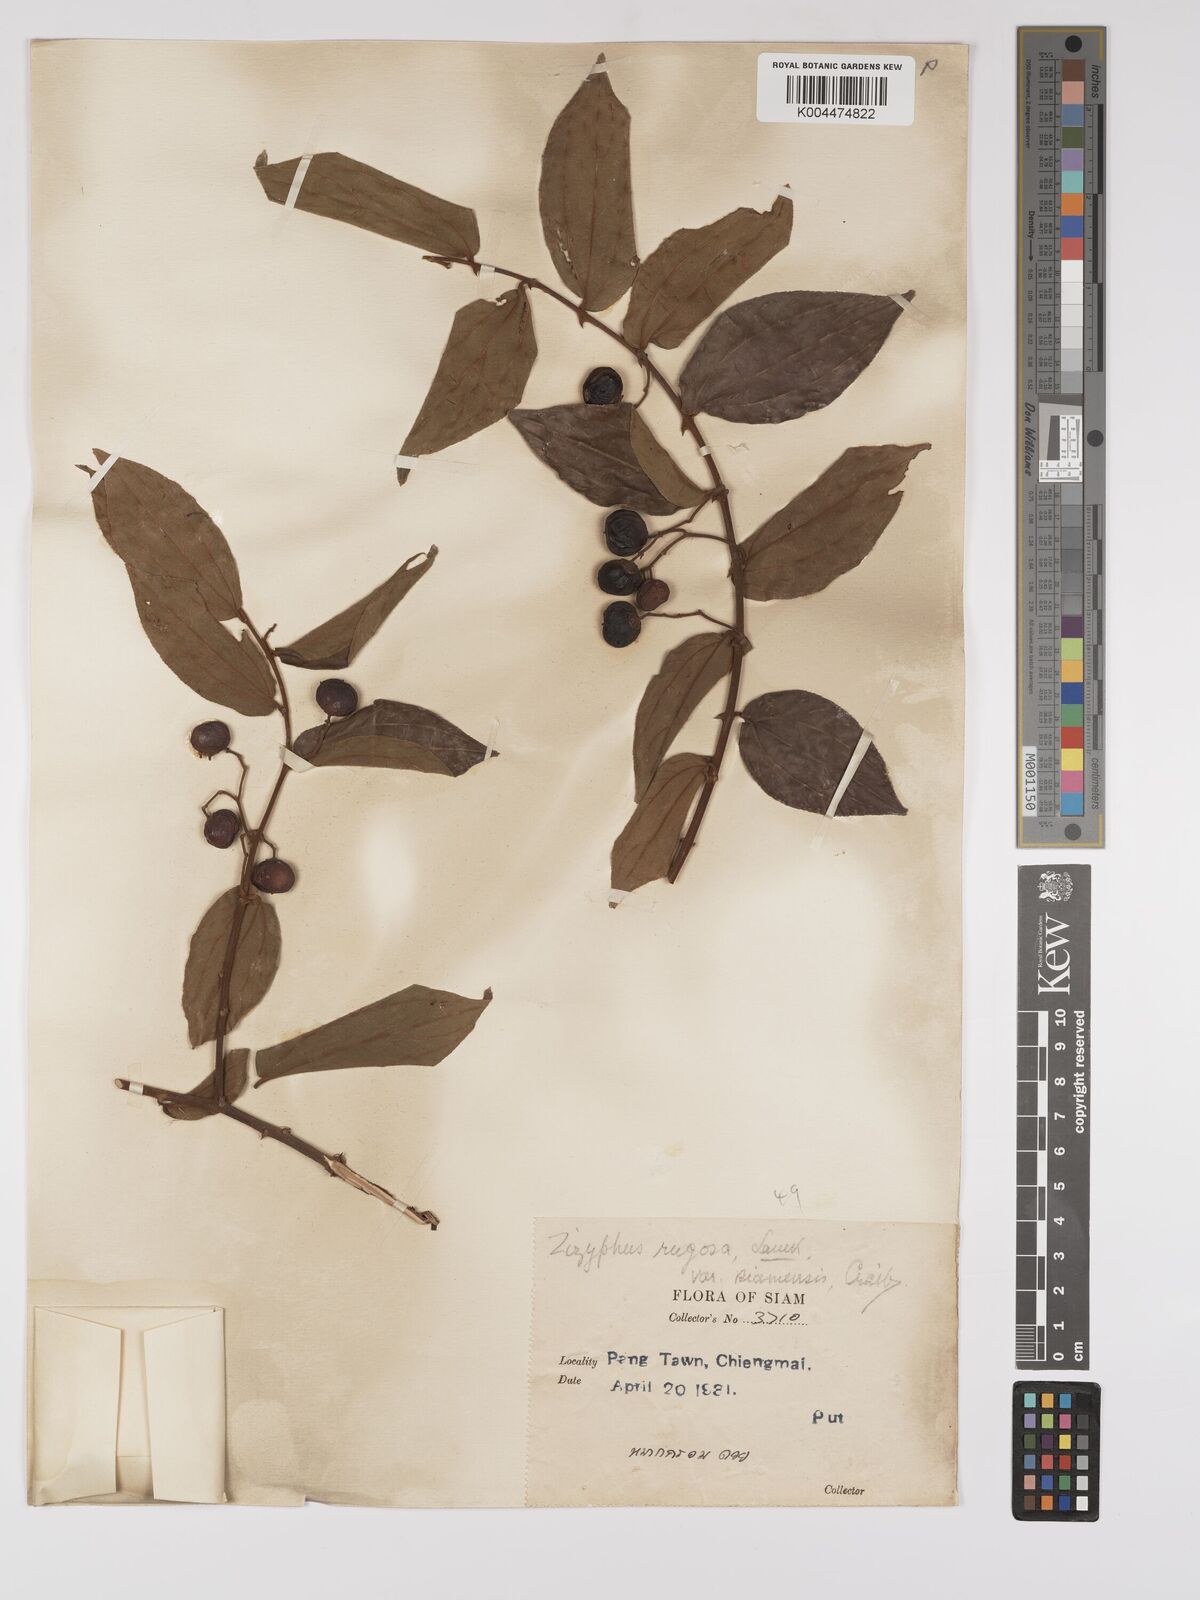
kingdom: Plantae
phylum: Tracheophyta
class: Magnoliopsida
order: Rosales
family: Rhamnaceae
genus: Ziziphus
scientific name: Ziziphus rugosa
